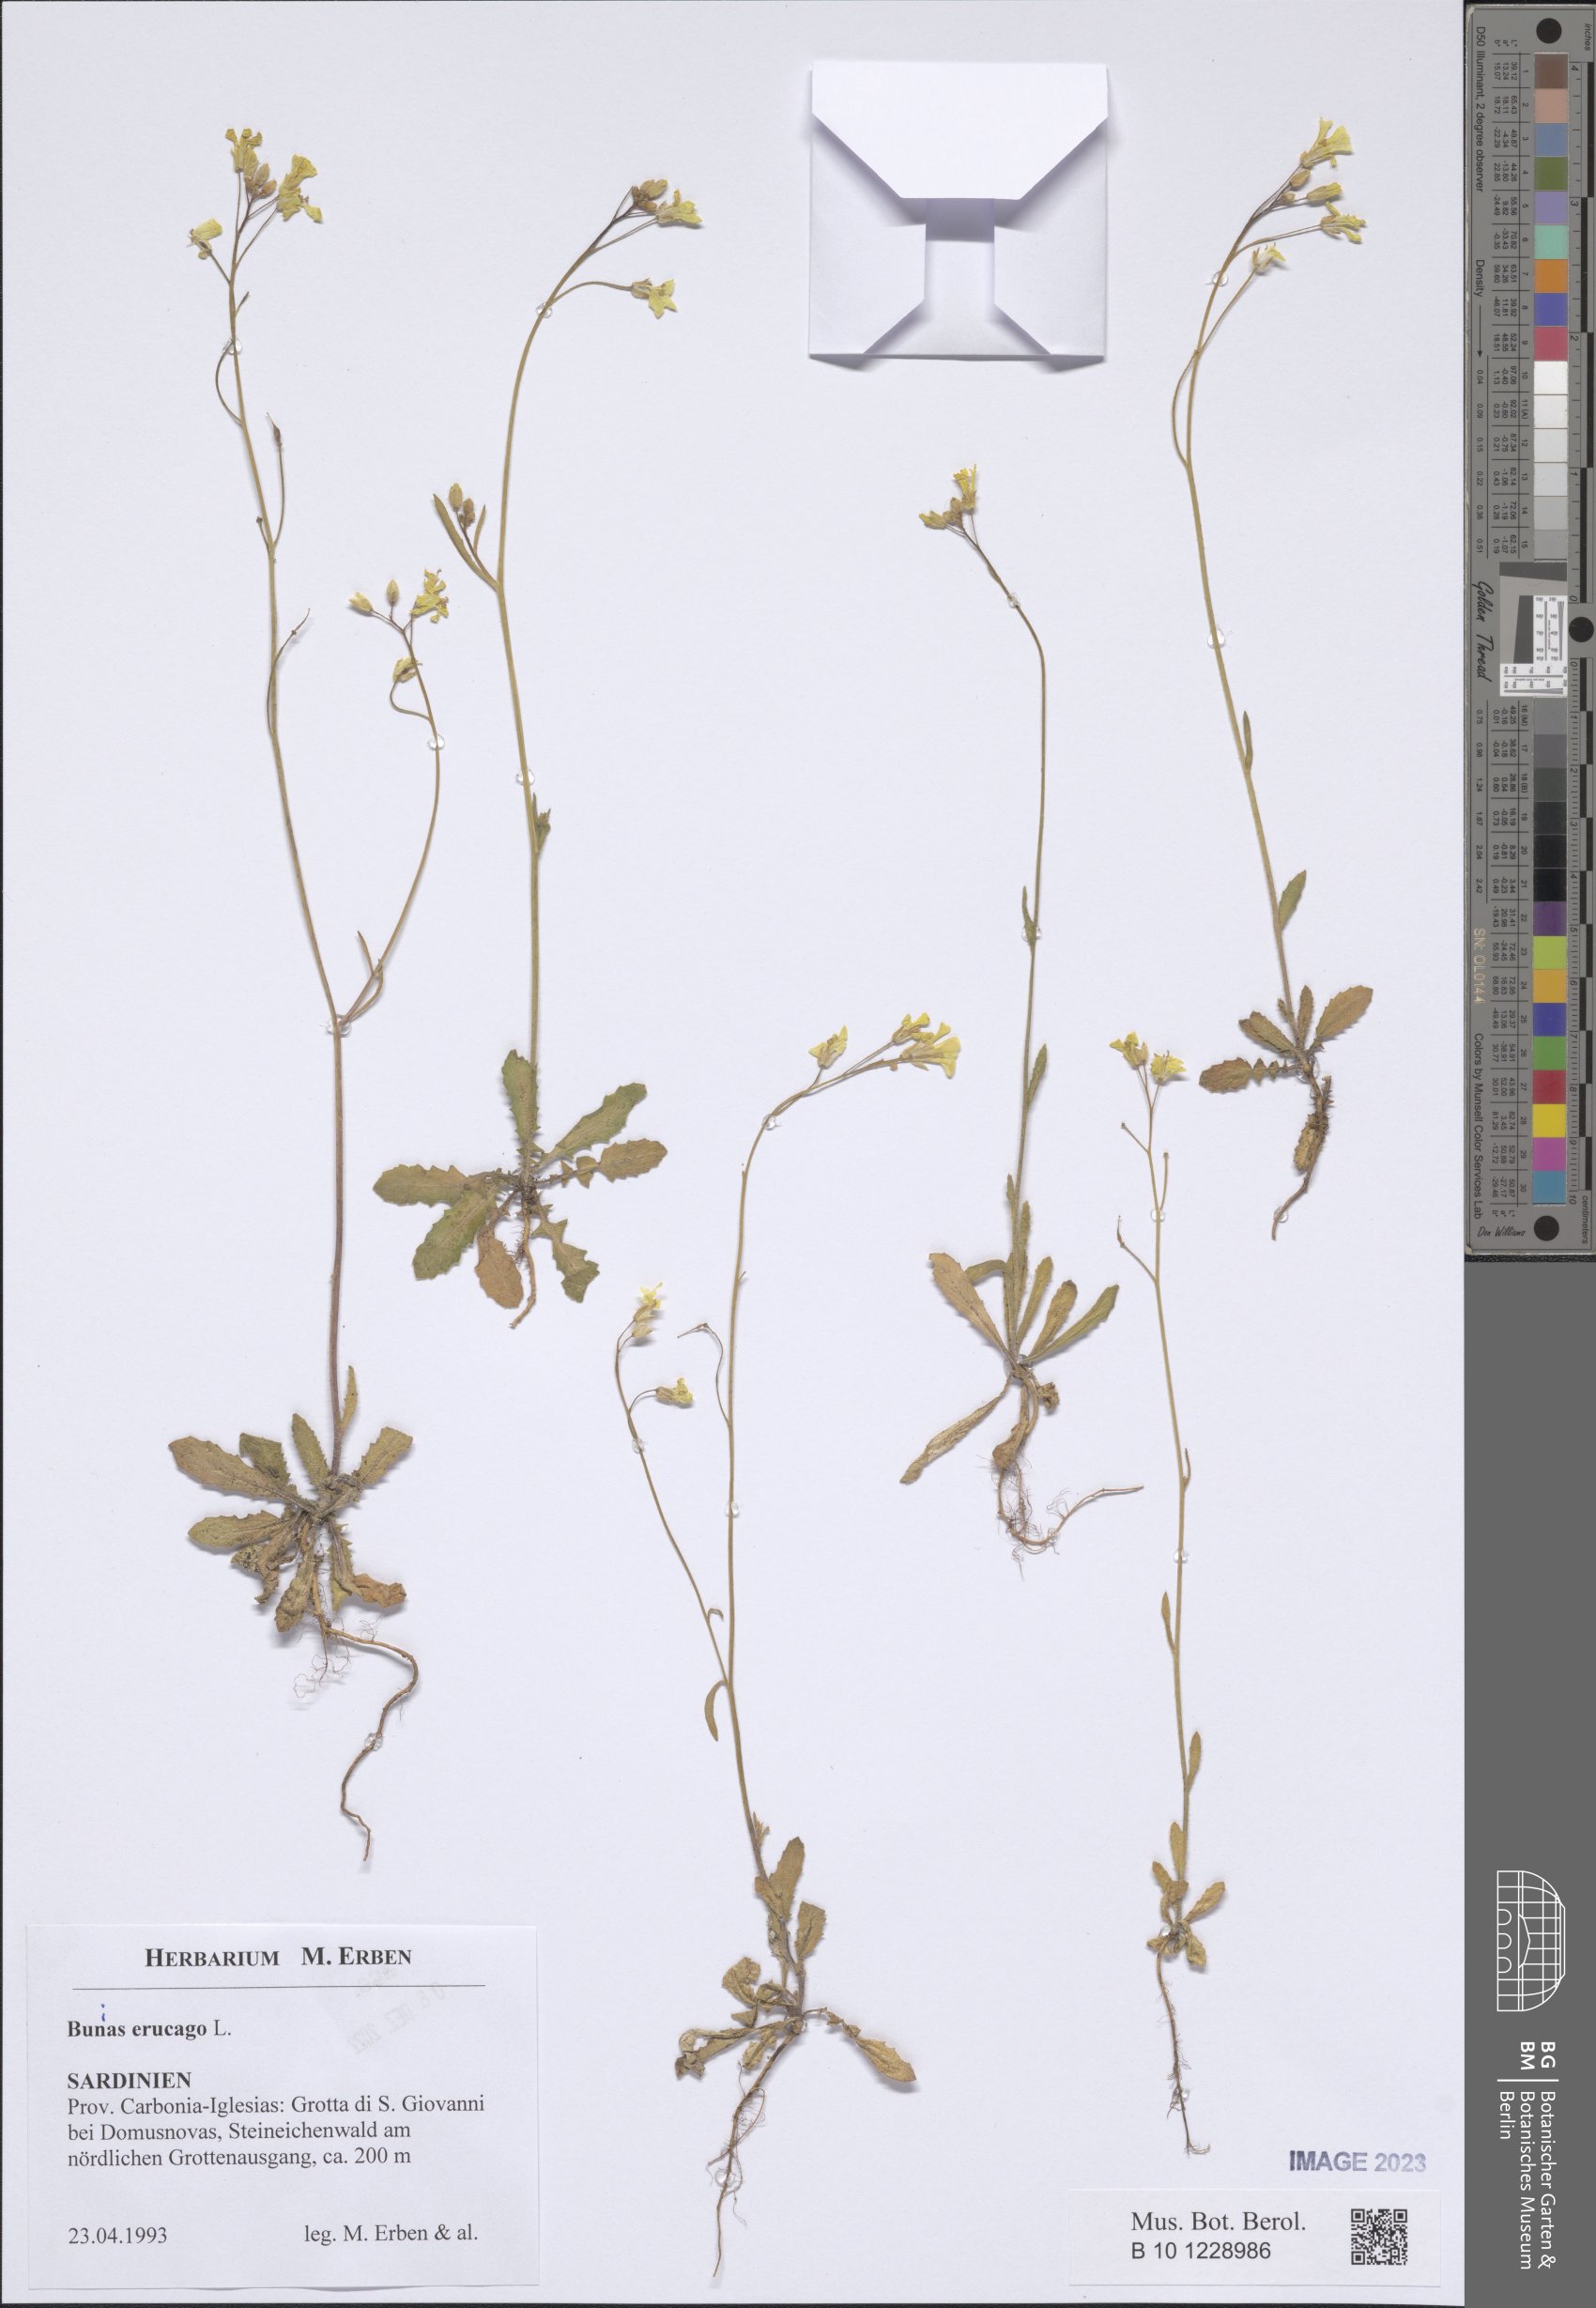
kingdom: Plantae
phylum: Tracheophyta
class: Magnoliopsida
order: Brassicales
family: Brassicaceae
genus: Bunias
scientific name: Bunias erucago
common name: Southern warty-cabbage
